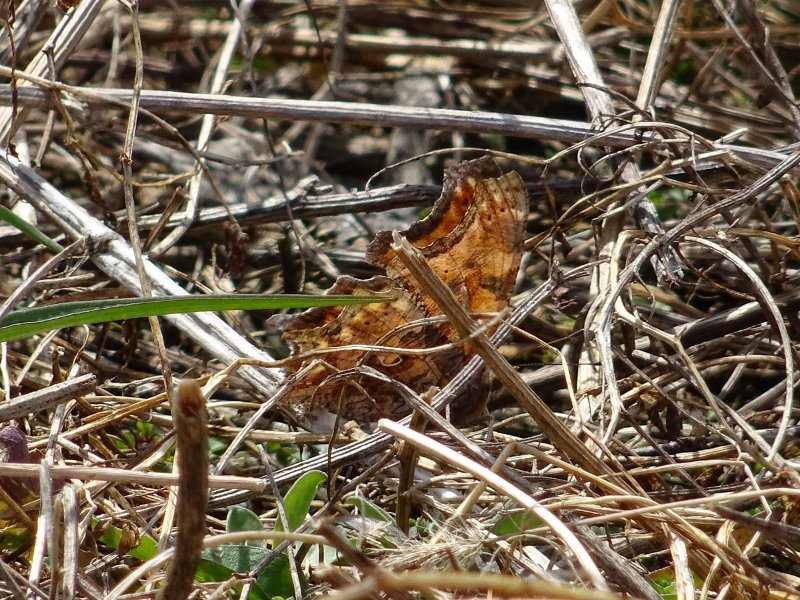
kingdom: Animalia
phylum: Arthropoda
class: Insecta
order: Lepidoptera
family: Nymphalidae
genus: Polygonia
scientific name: Polygonia comma
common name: Eastern Comma
